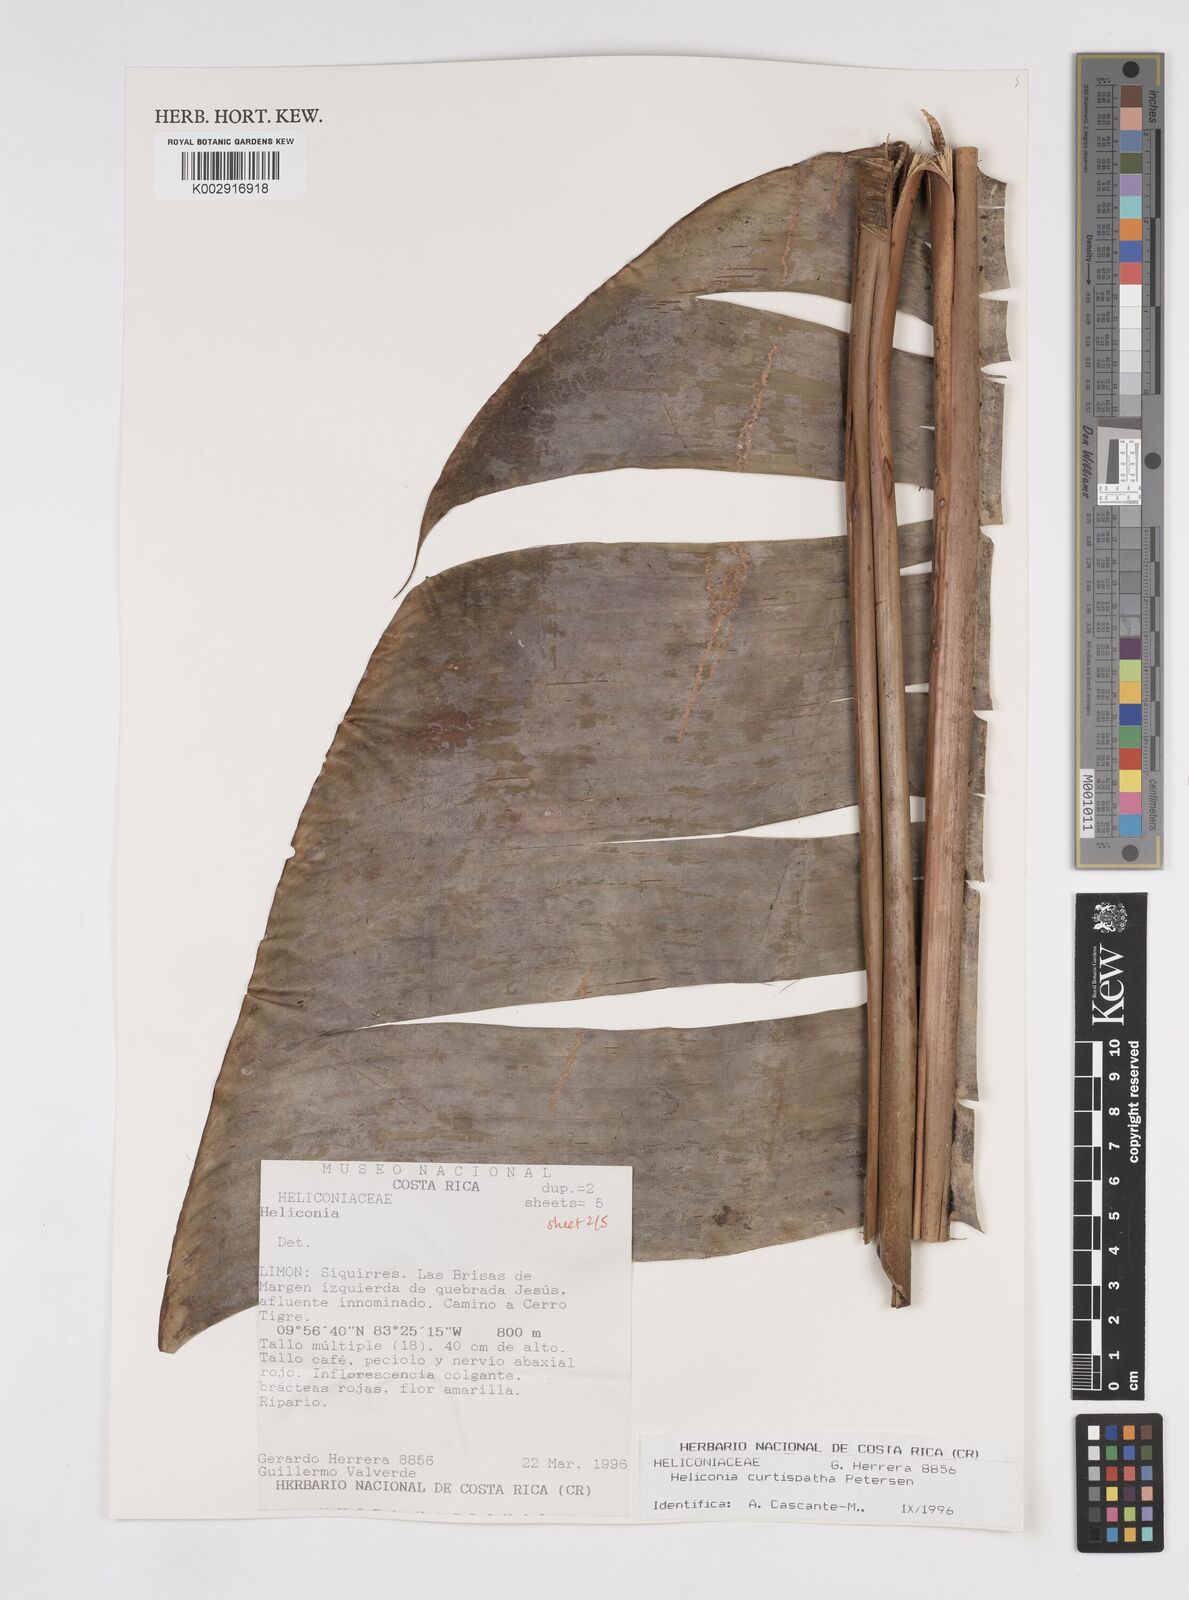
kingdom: Plantae
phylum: Tracheophyta
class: Liliopsida
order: Zingiberales
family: Heliconiaceae
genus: Heliconia
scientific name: Heliconia curtispatha
